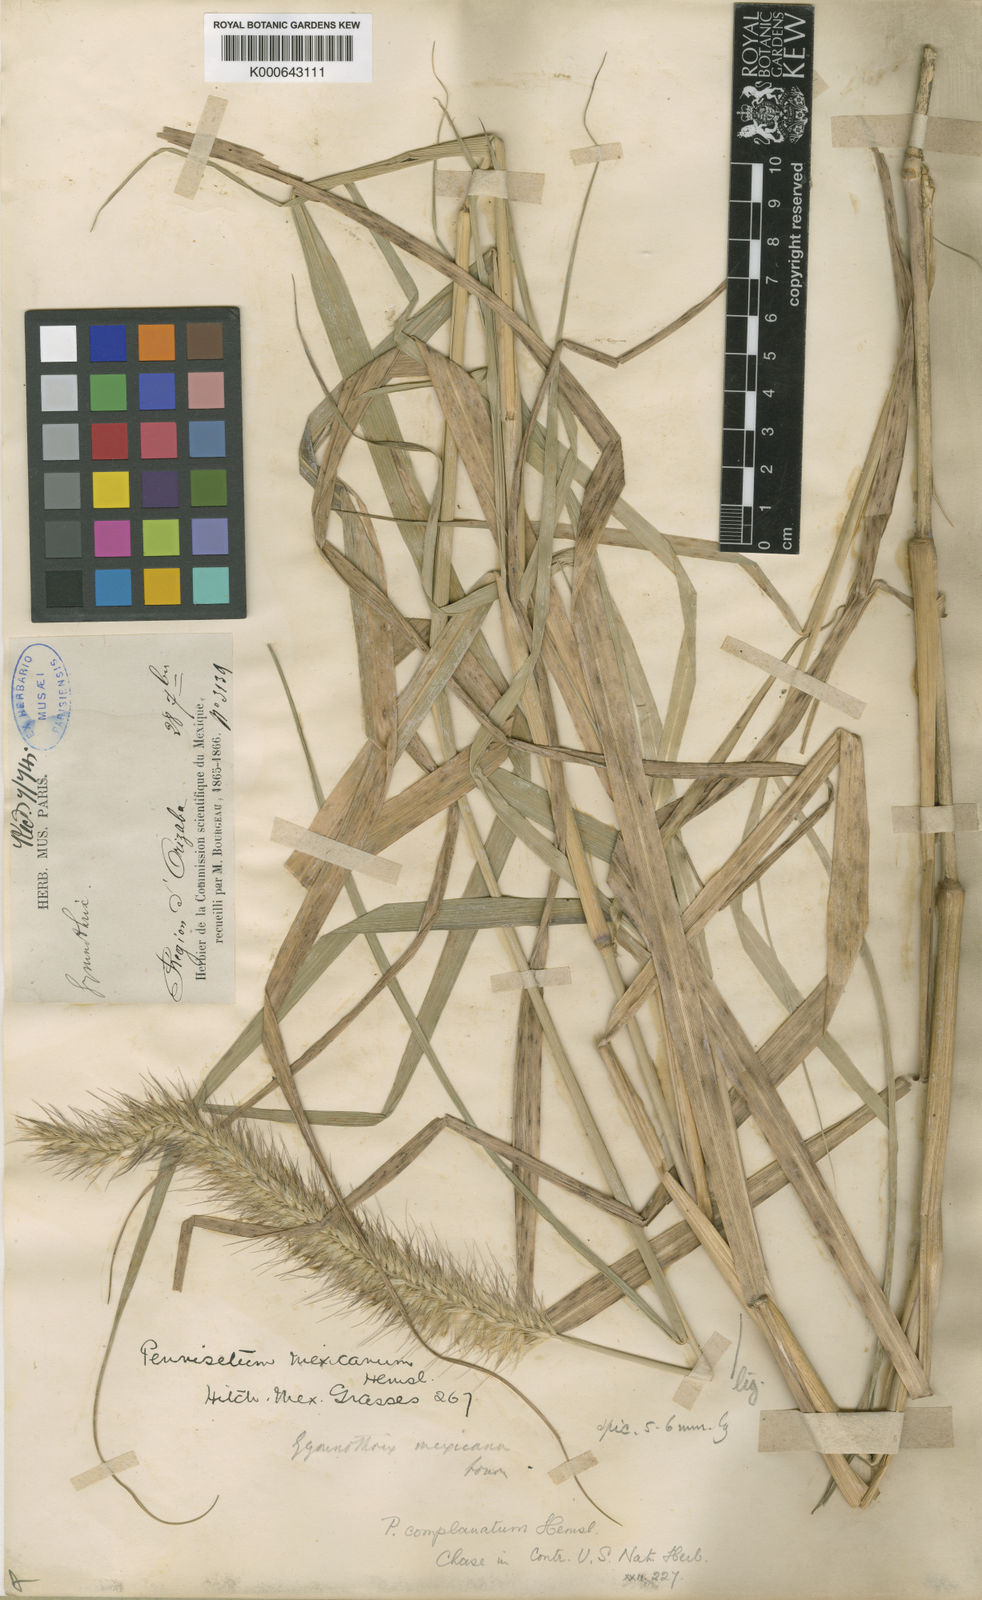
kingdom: Plantae
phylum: Tracheophyta
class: Liliopsida
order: Poales
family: Poaceae
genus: Cenchrus
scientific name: Cenchrus complanatus
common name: Nicaraguan fountaingrass
